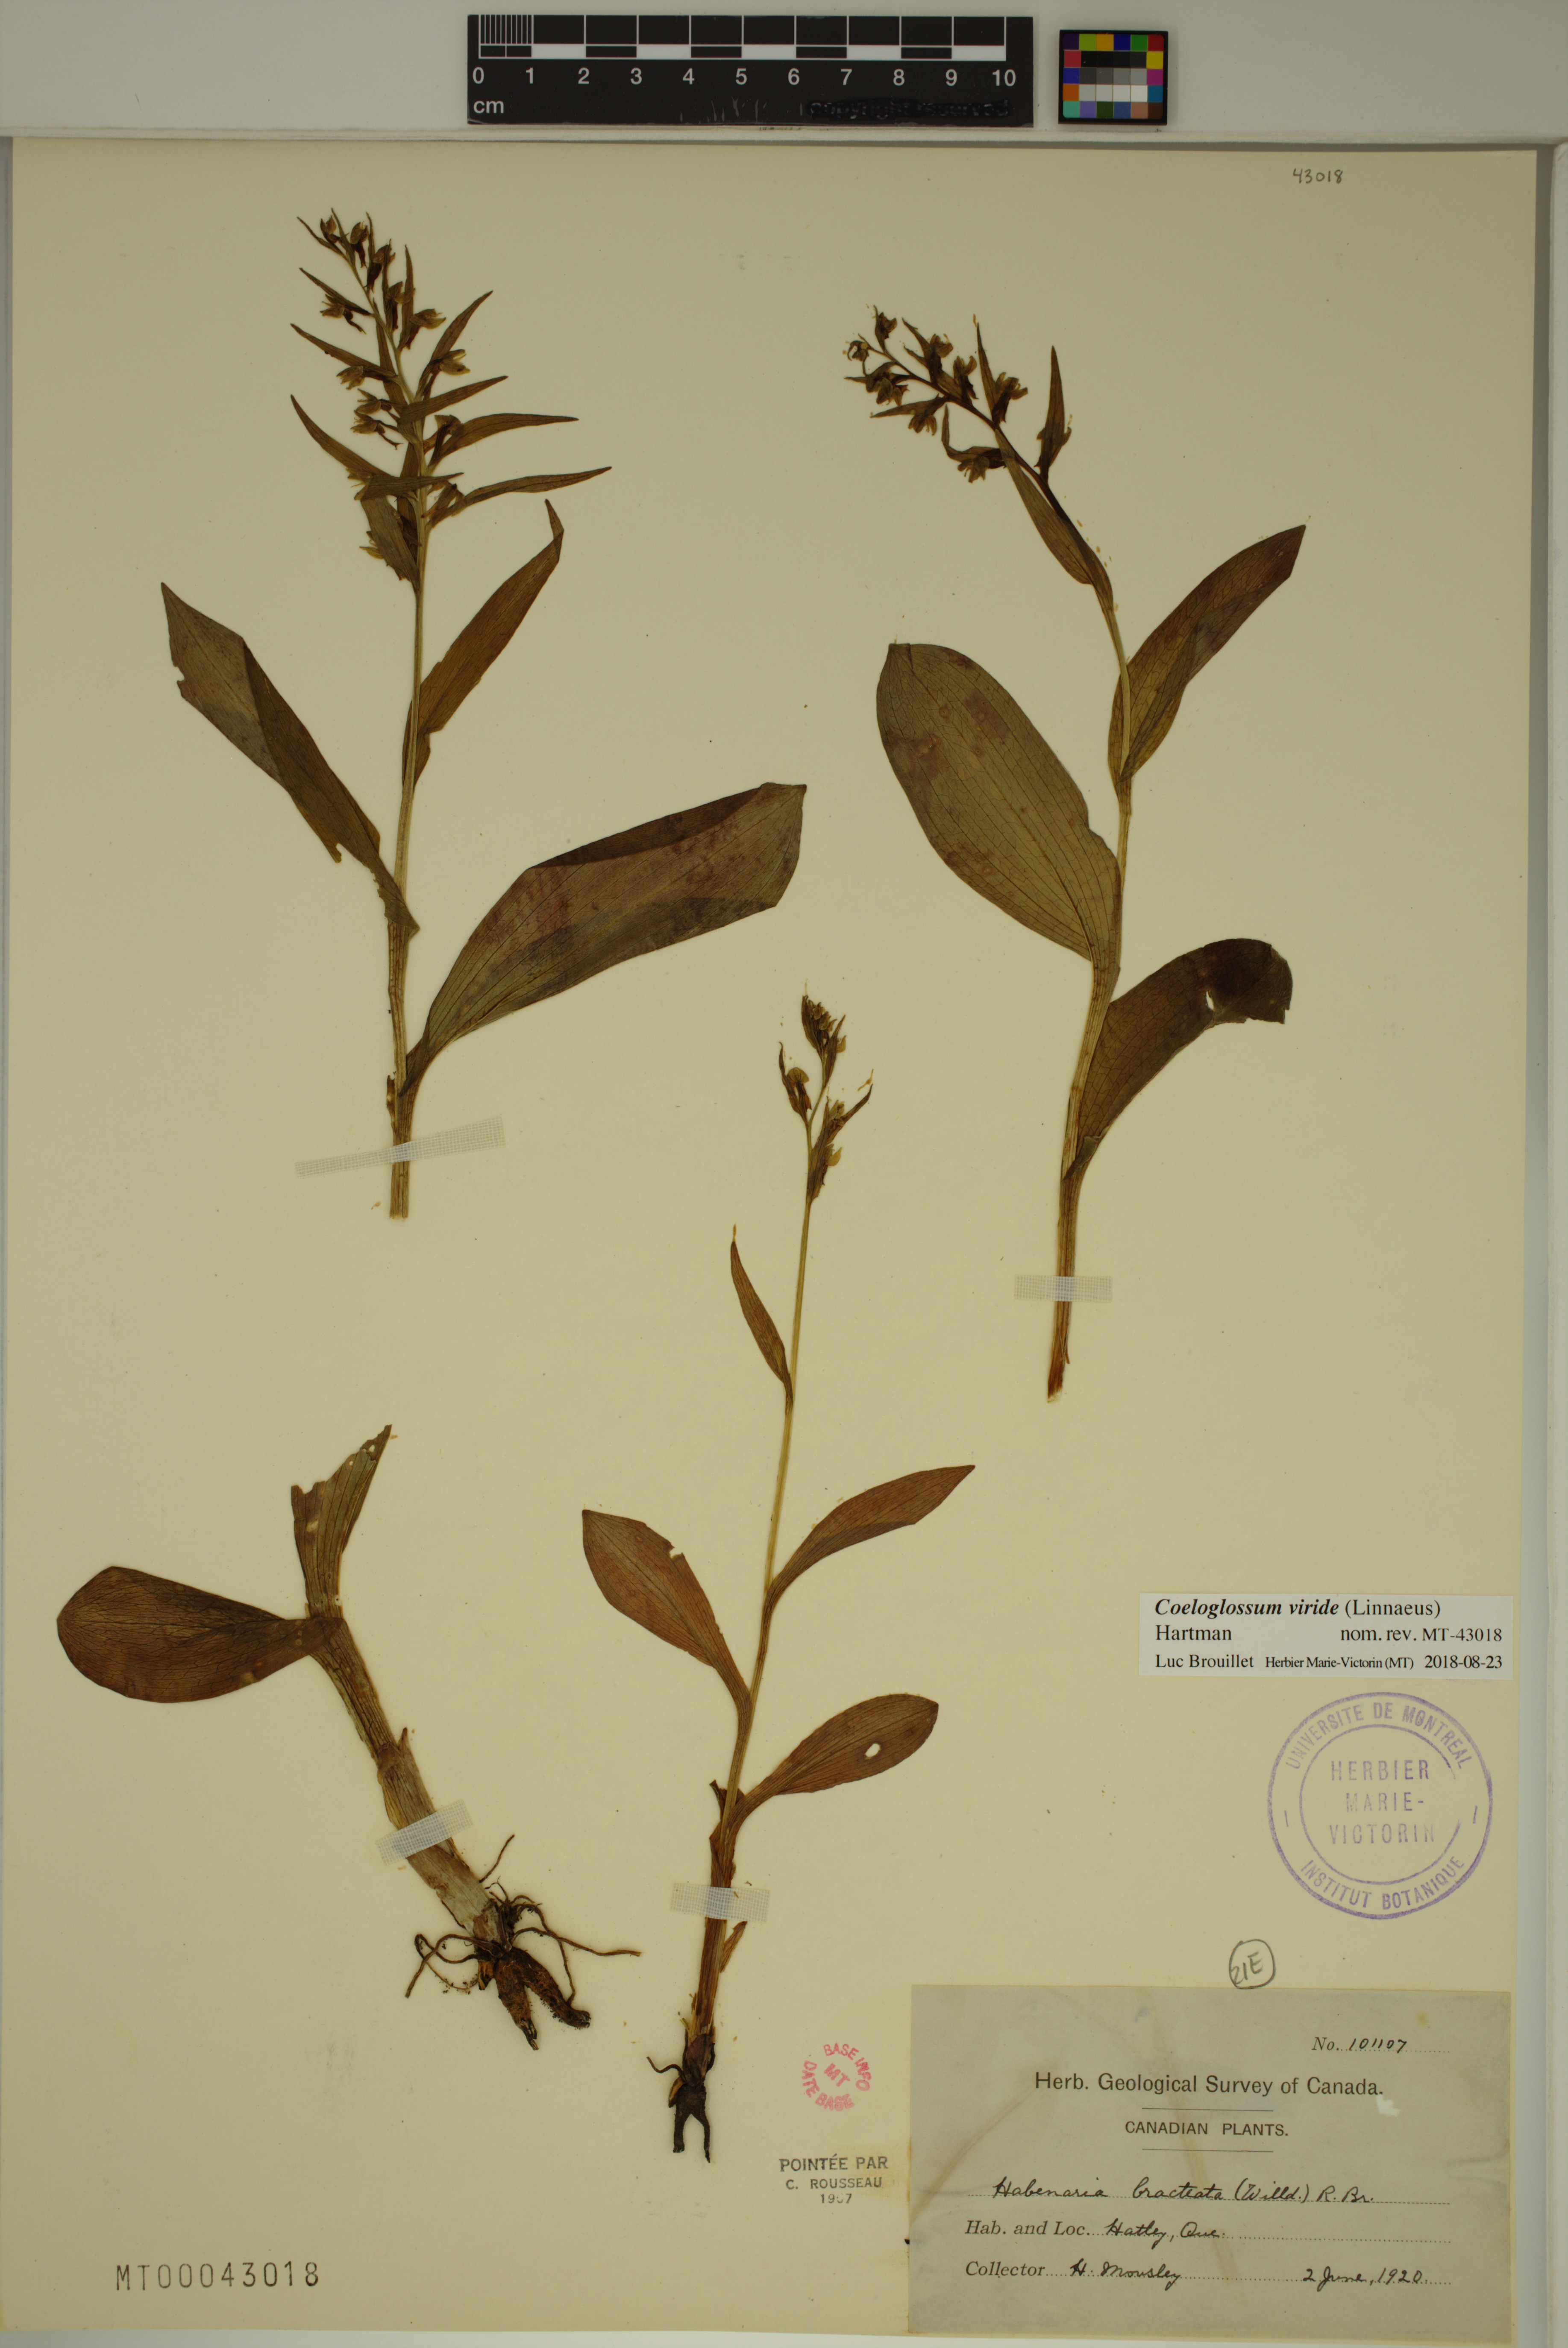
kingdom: Plantae
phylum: Tracheophyta
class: Liliopsida
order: Asparagales
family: Orchidaceae
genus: Dactylorhiza
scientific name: Dactylorhiza viridis
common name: Longbract frog orchid
